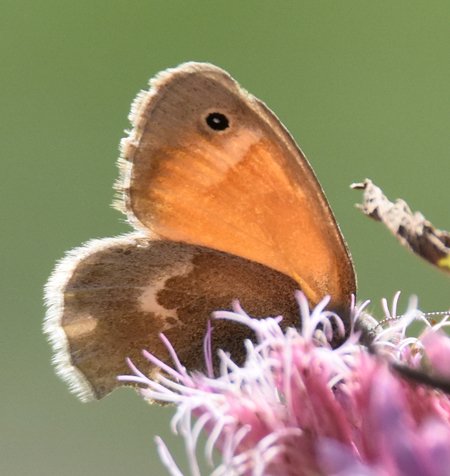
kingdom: Animalia
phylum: Arthropoda
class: Insecta
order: Lepidoptera
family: Nymphalidae
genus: Coenonympha
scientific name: Coenonympha tullia
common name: Large Heath
